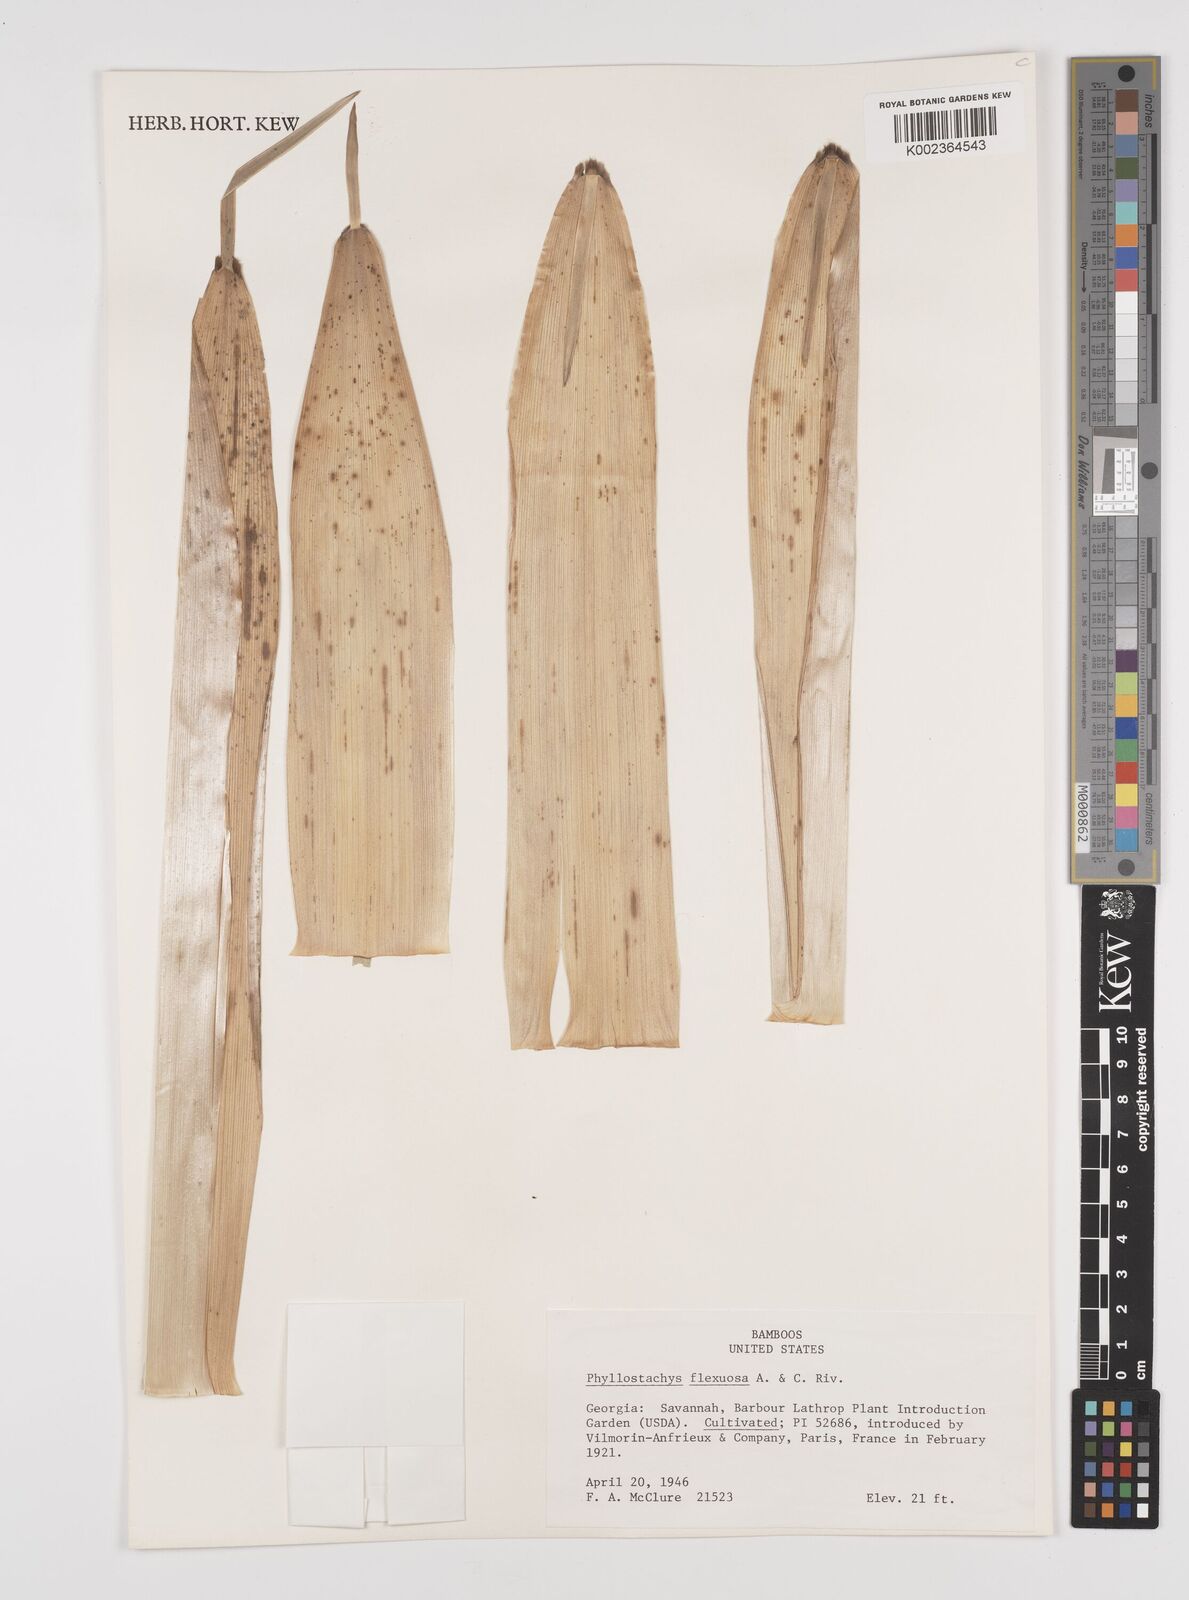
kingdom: Plantae
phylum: Tracheophyta
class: Liliopsida
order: Poales
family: Poaceae
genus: Phyllostachys
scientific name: Phyllostachys flexuosa
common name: Drooping timber bamboo
